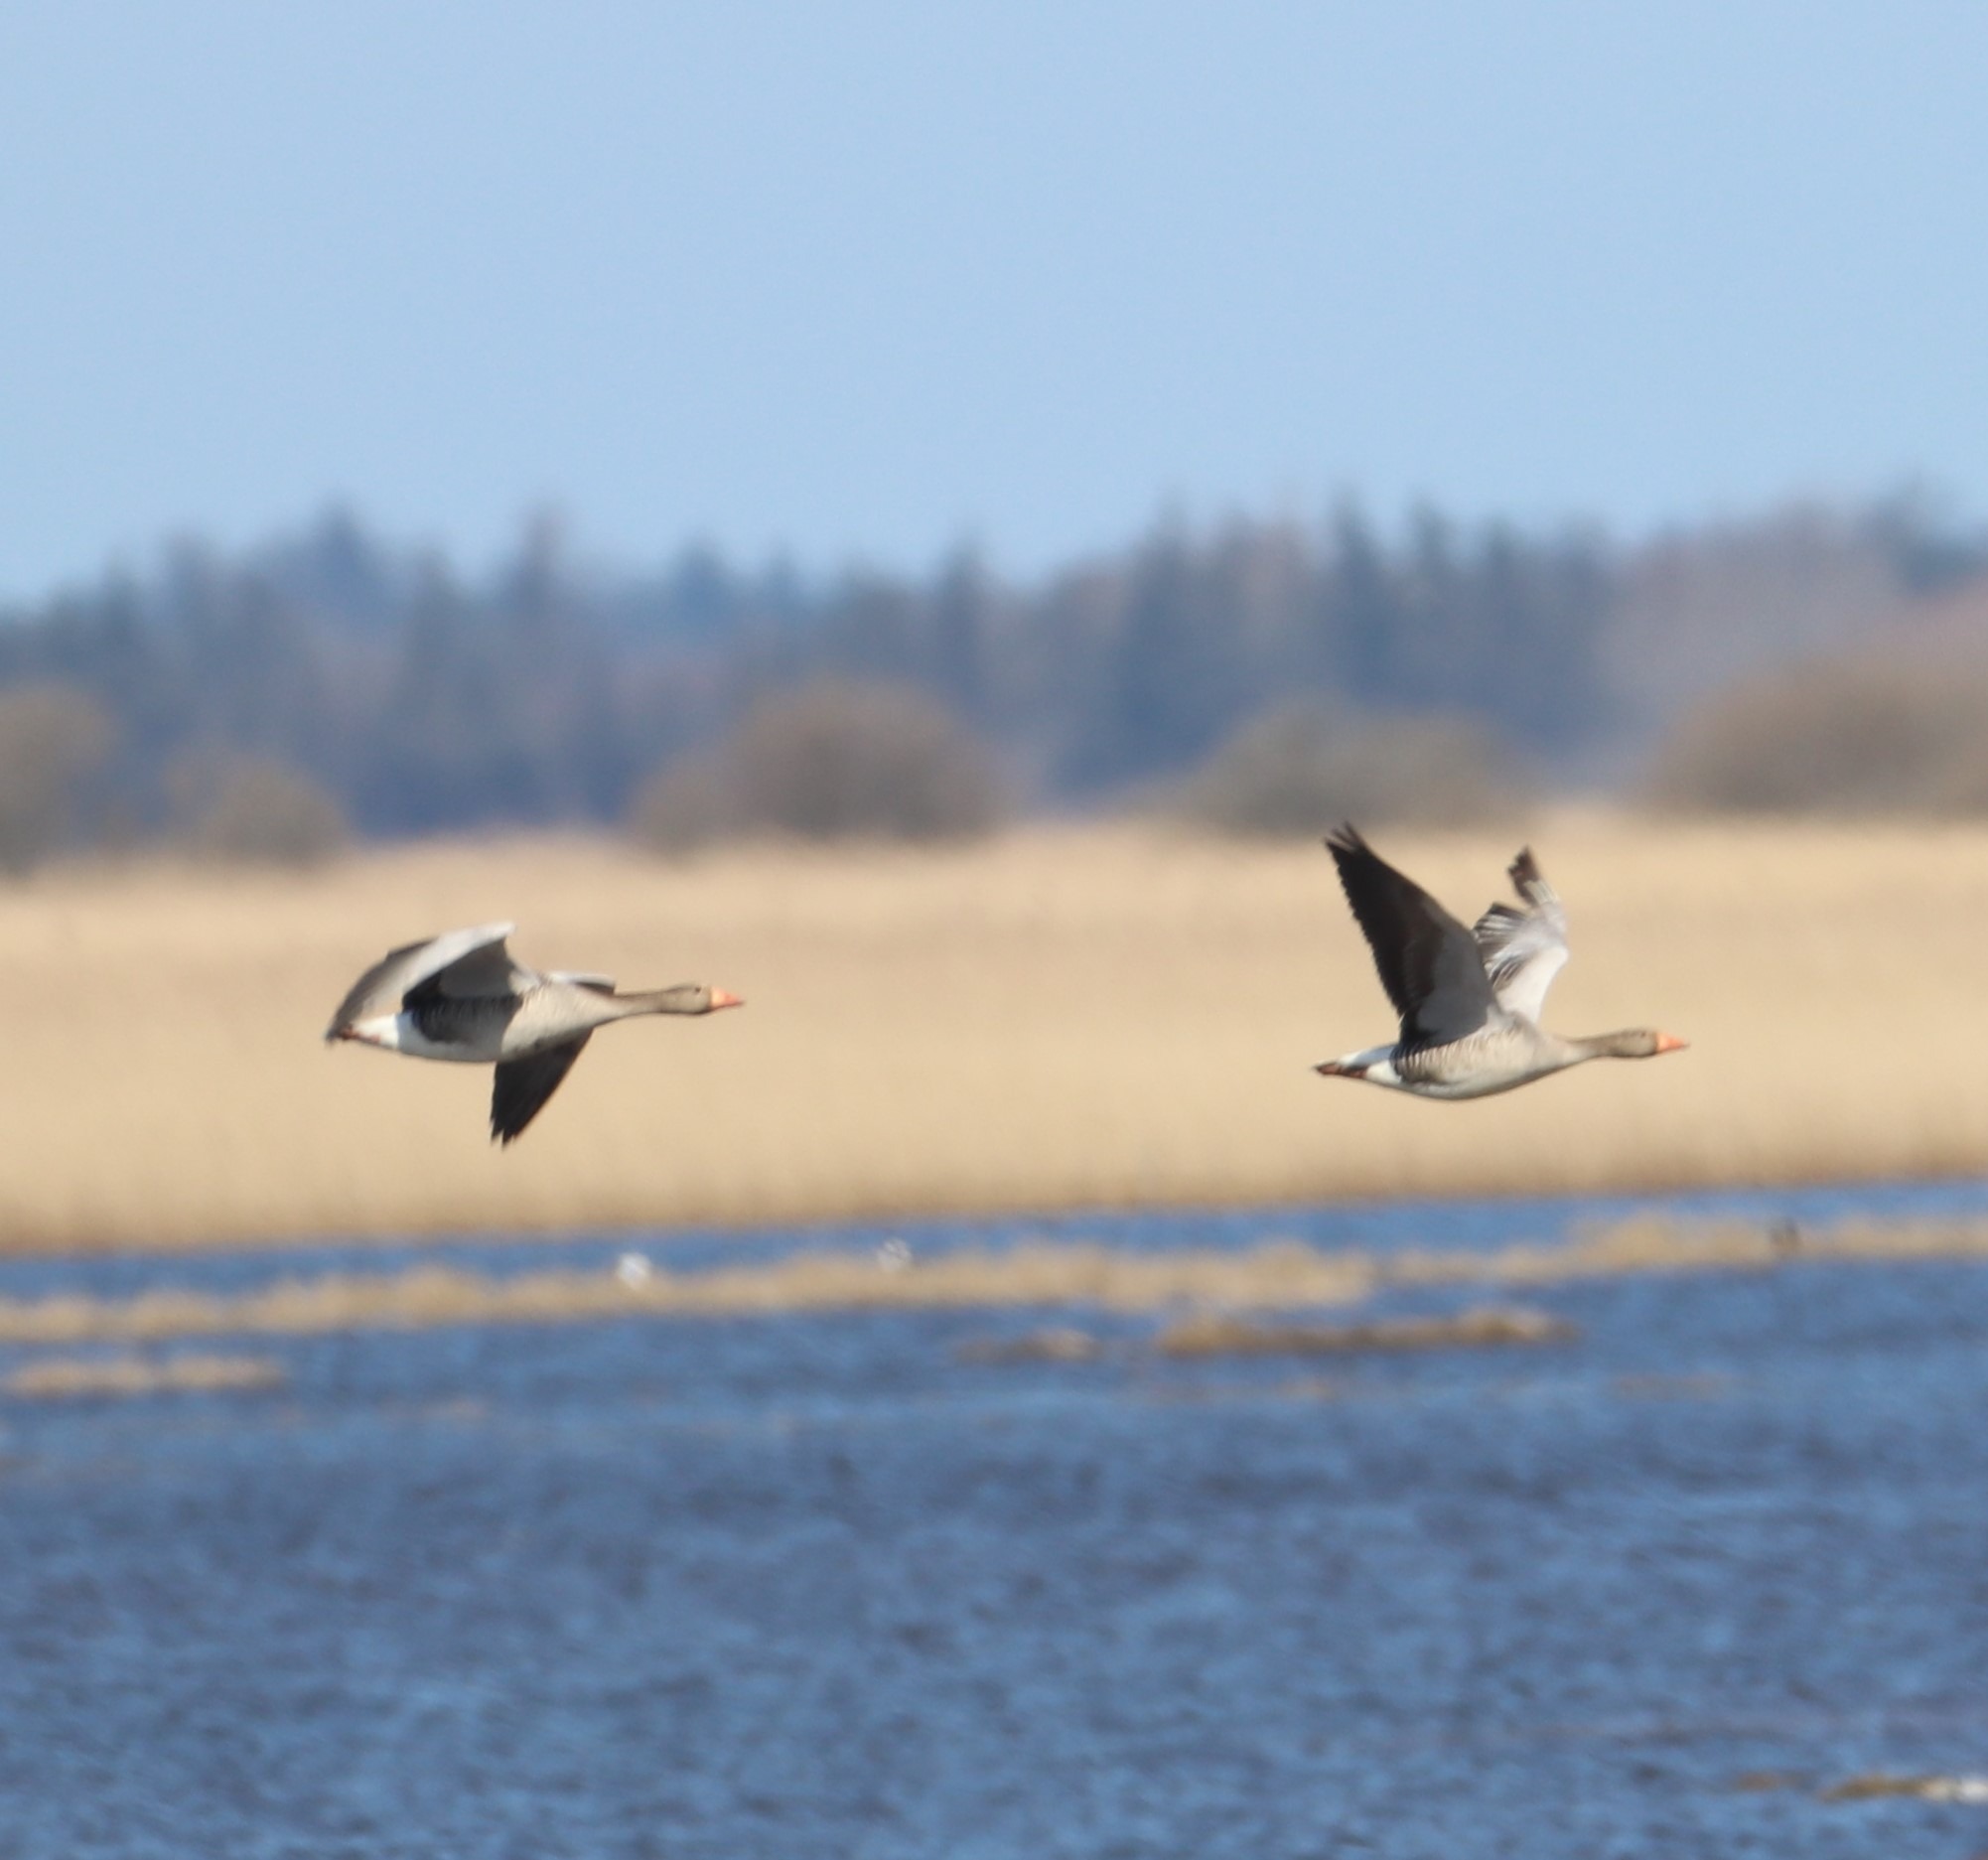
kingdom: Animalia
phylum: Chordata
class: Aves
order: Anseriformes
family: Anatidae
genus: Anser
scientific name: Anser anser
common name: Grågås
